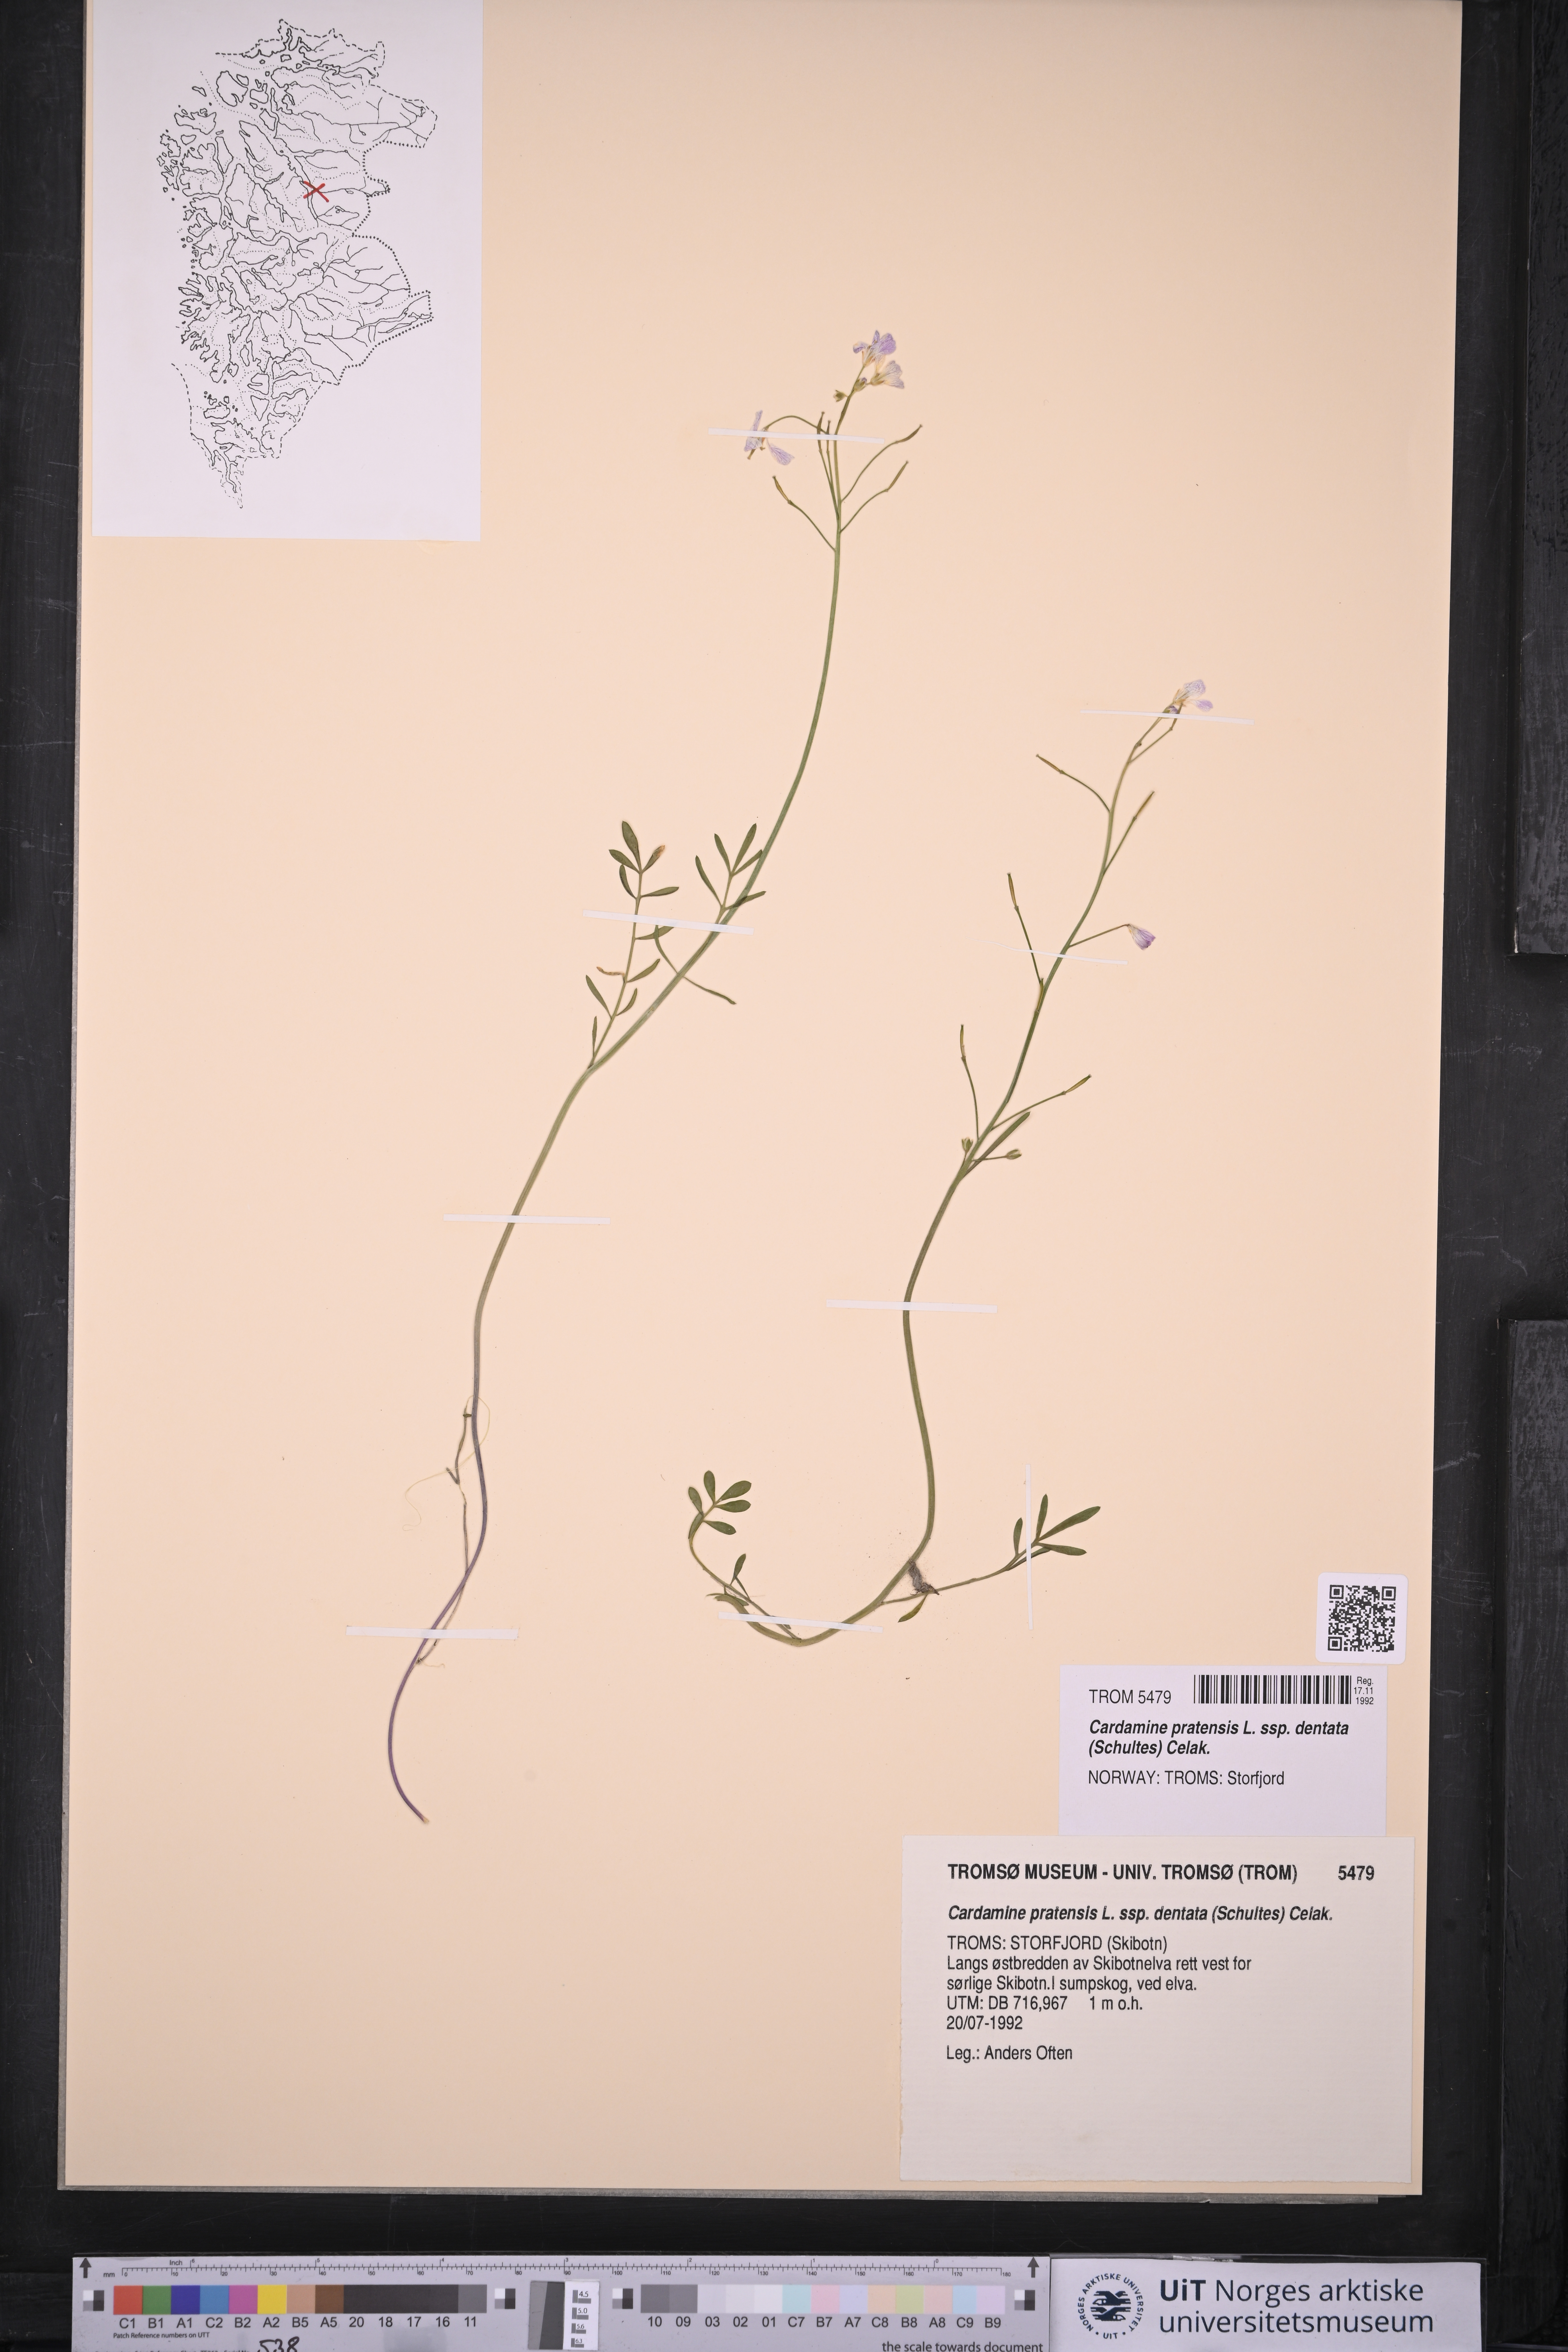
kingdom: Plantae
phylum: Tracheophyta
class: Magnoliopsida
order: Brassicales
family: Brassicaceae
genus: Cardamine
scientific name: Cardamine dentata
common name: Toothed bittercress
